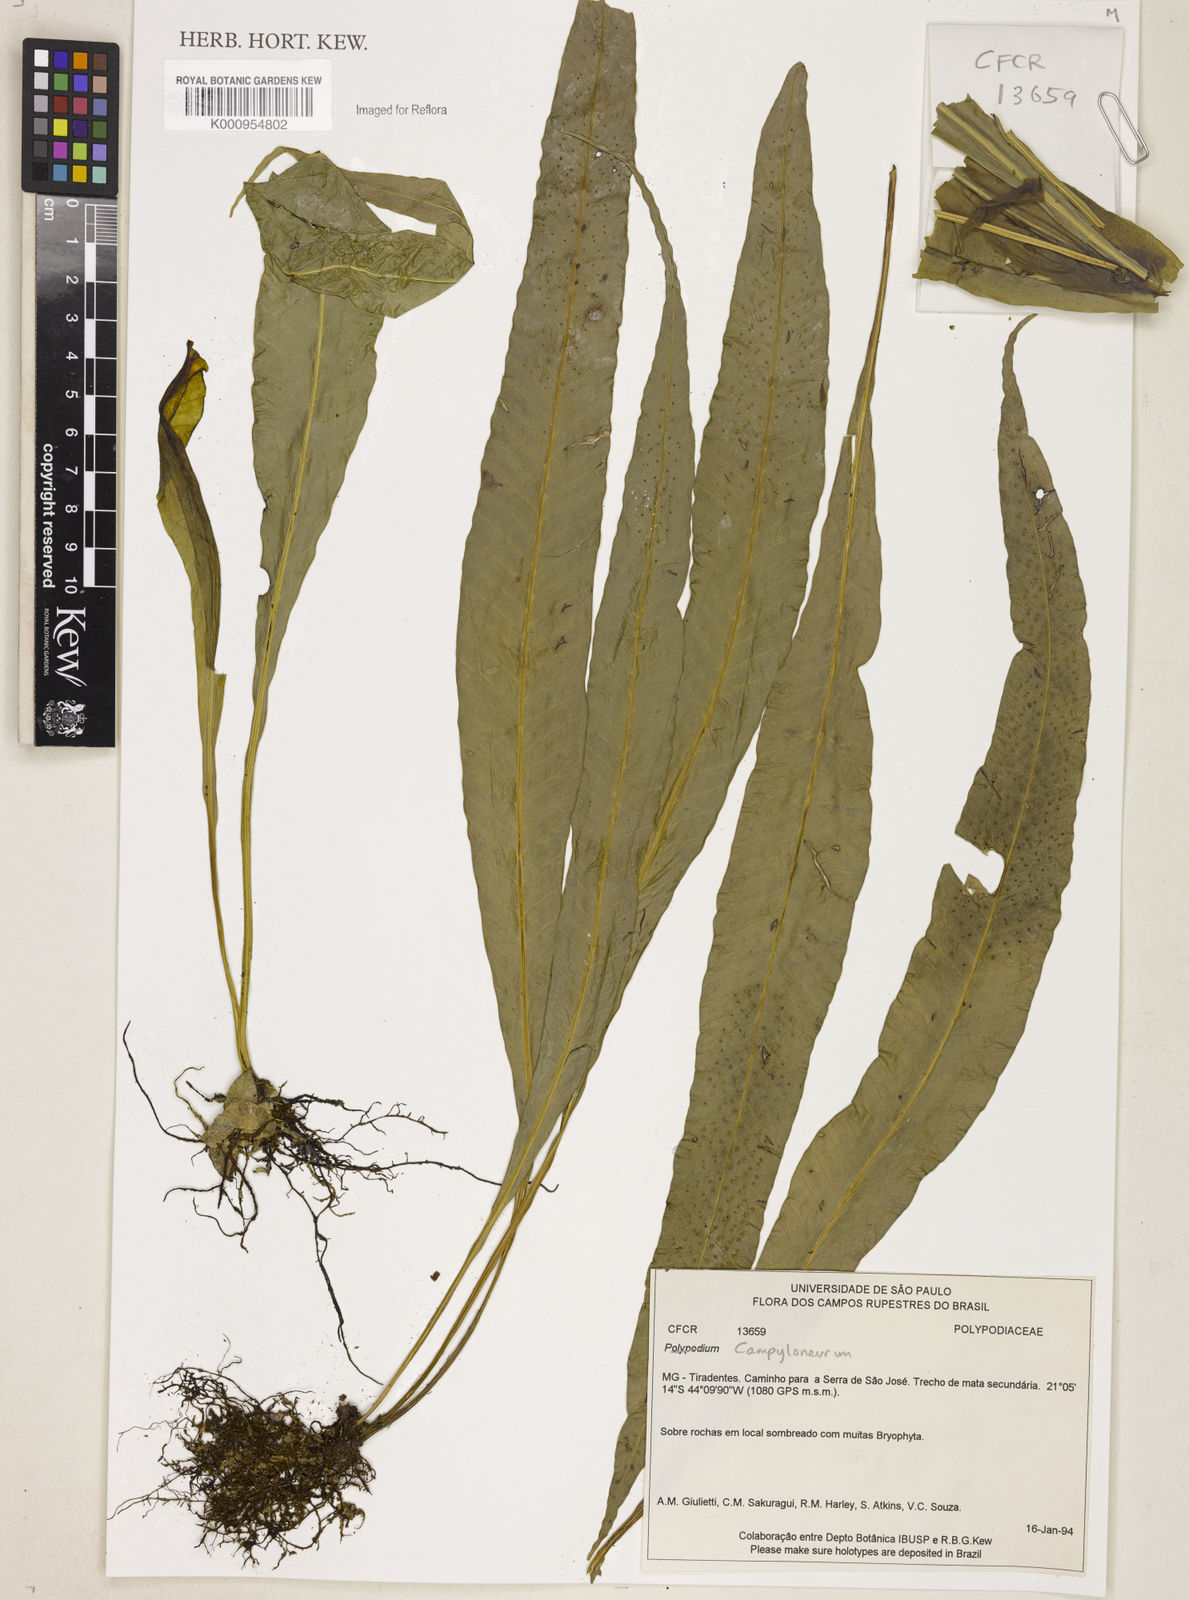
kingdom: Plantae
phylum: Tracheophyta
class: Polypodiopsida
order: Polypodiales
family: Polypodiaceae
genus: Campyloneurum
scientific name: Campyloneurum
